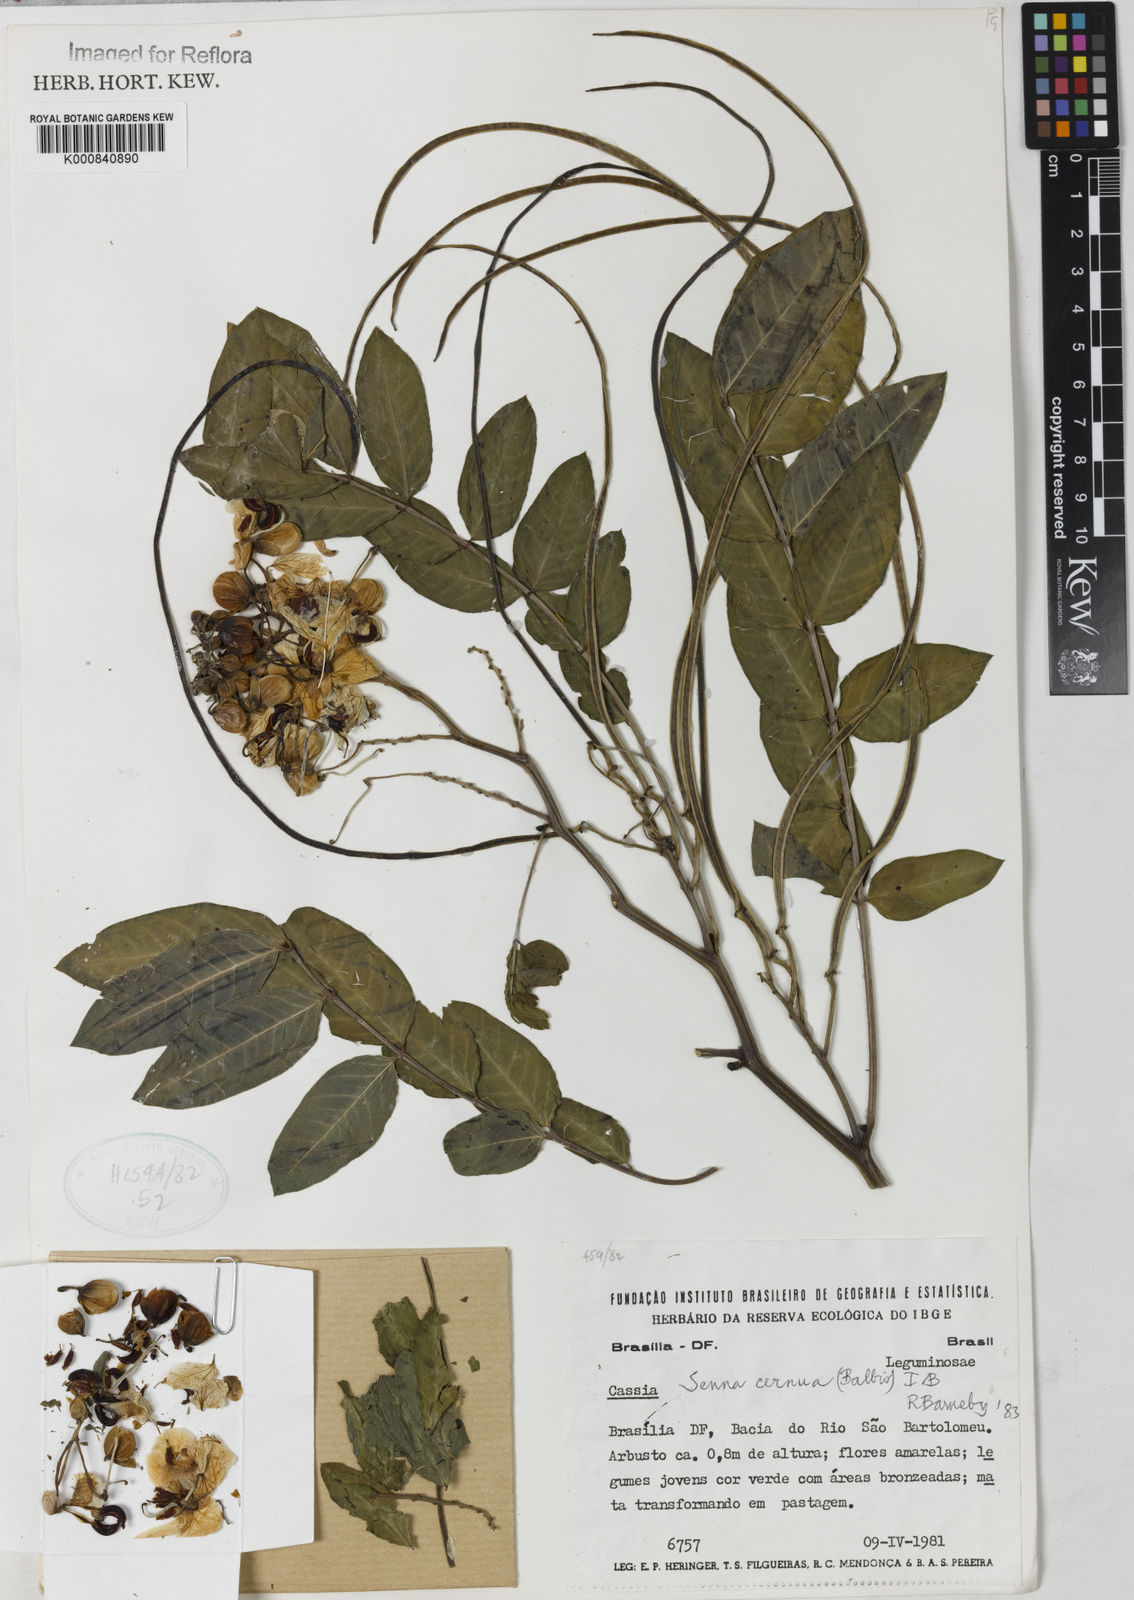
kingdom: Plantae
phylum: Tracheophyta
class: Magnoliopsida
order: Fabales
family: Fabaceae
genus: Senna
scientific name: Senna cernua
